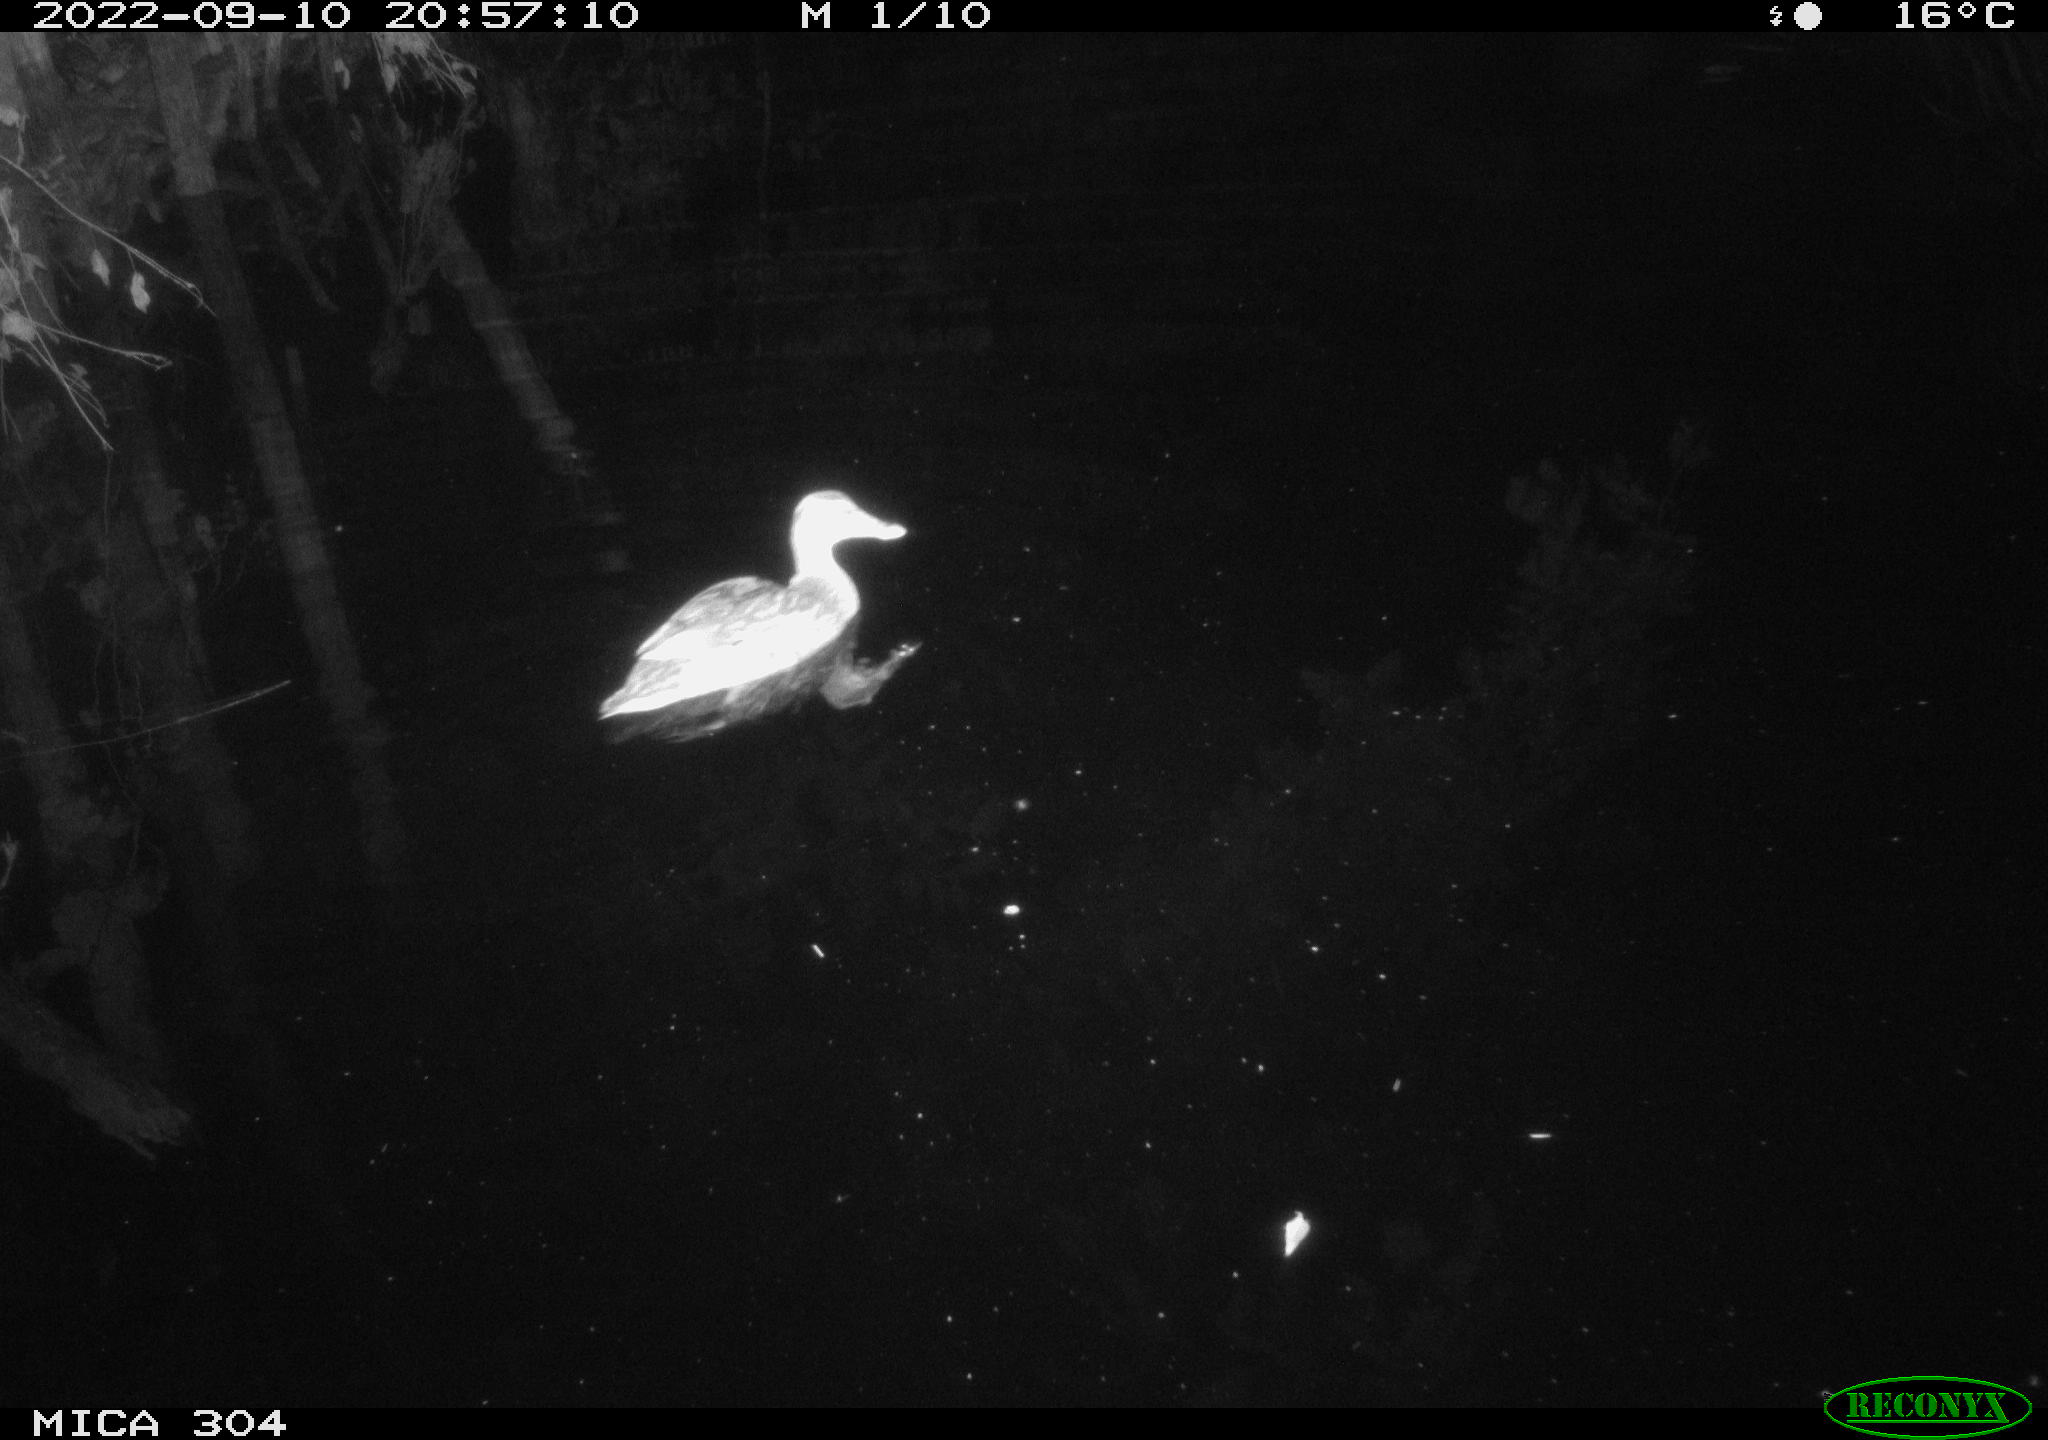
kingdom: Animalia
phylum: Chordata
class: Aves
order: Anseriformes
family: Anatidae
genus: Anas
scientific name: Anas
